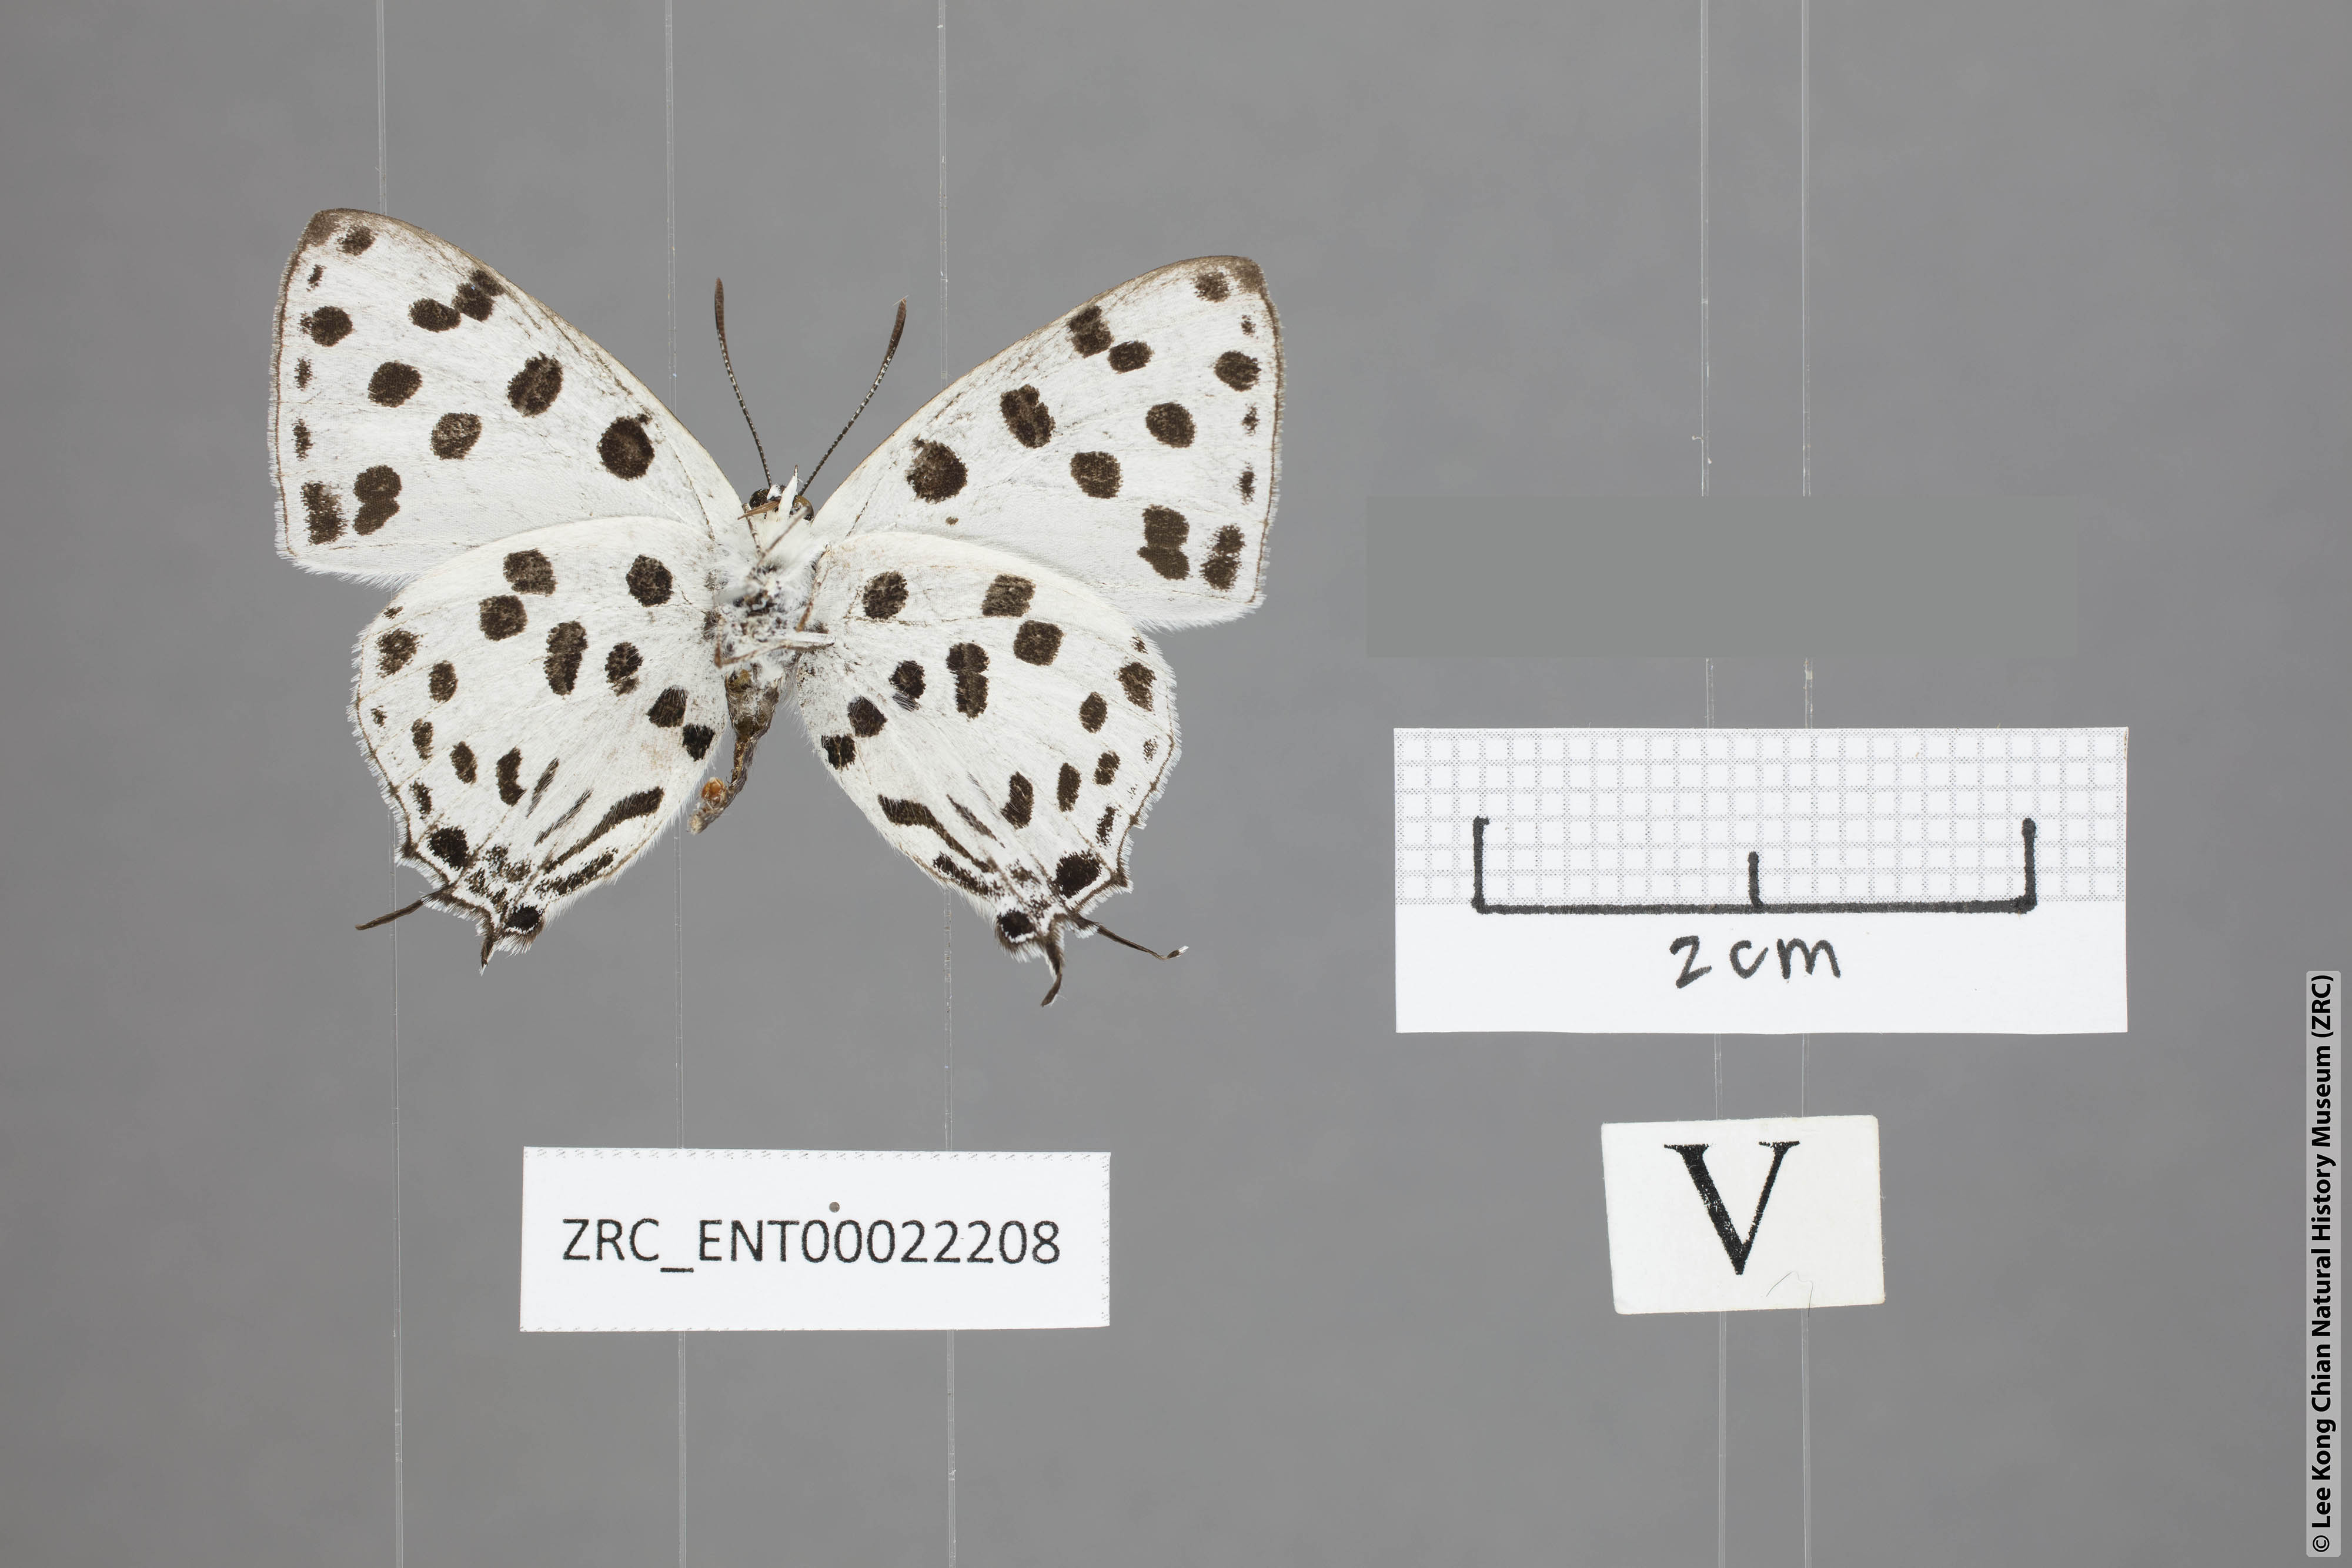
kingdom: Animalia
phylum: Arthropoda
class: Insecta
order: Lepidoptera
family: Lycaenidae
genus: Tajuria
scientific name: Tajuria maculatus
